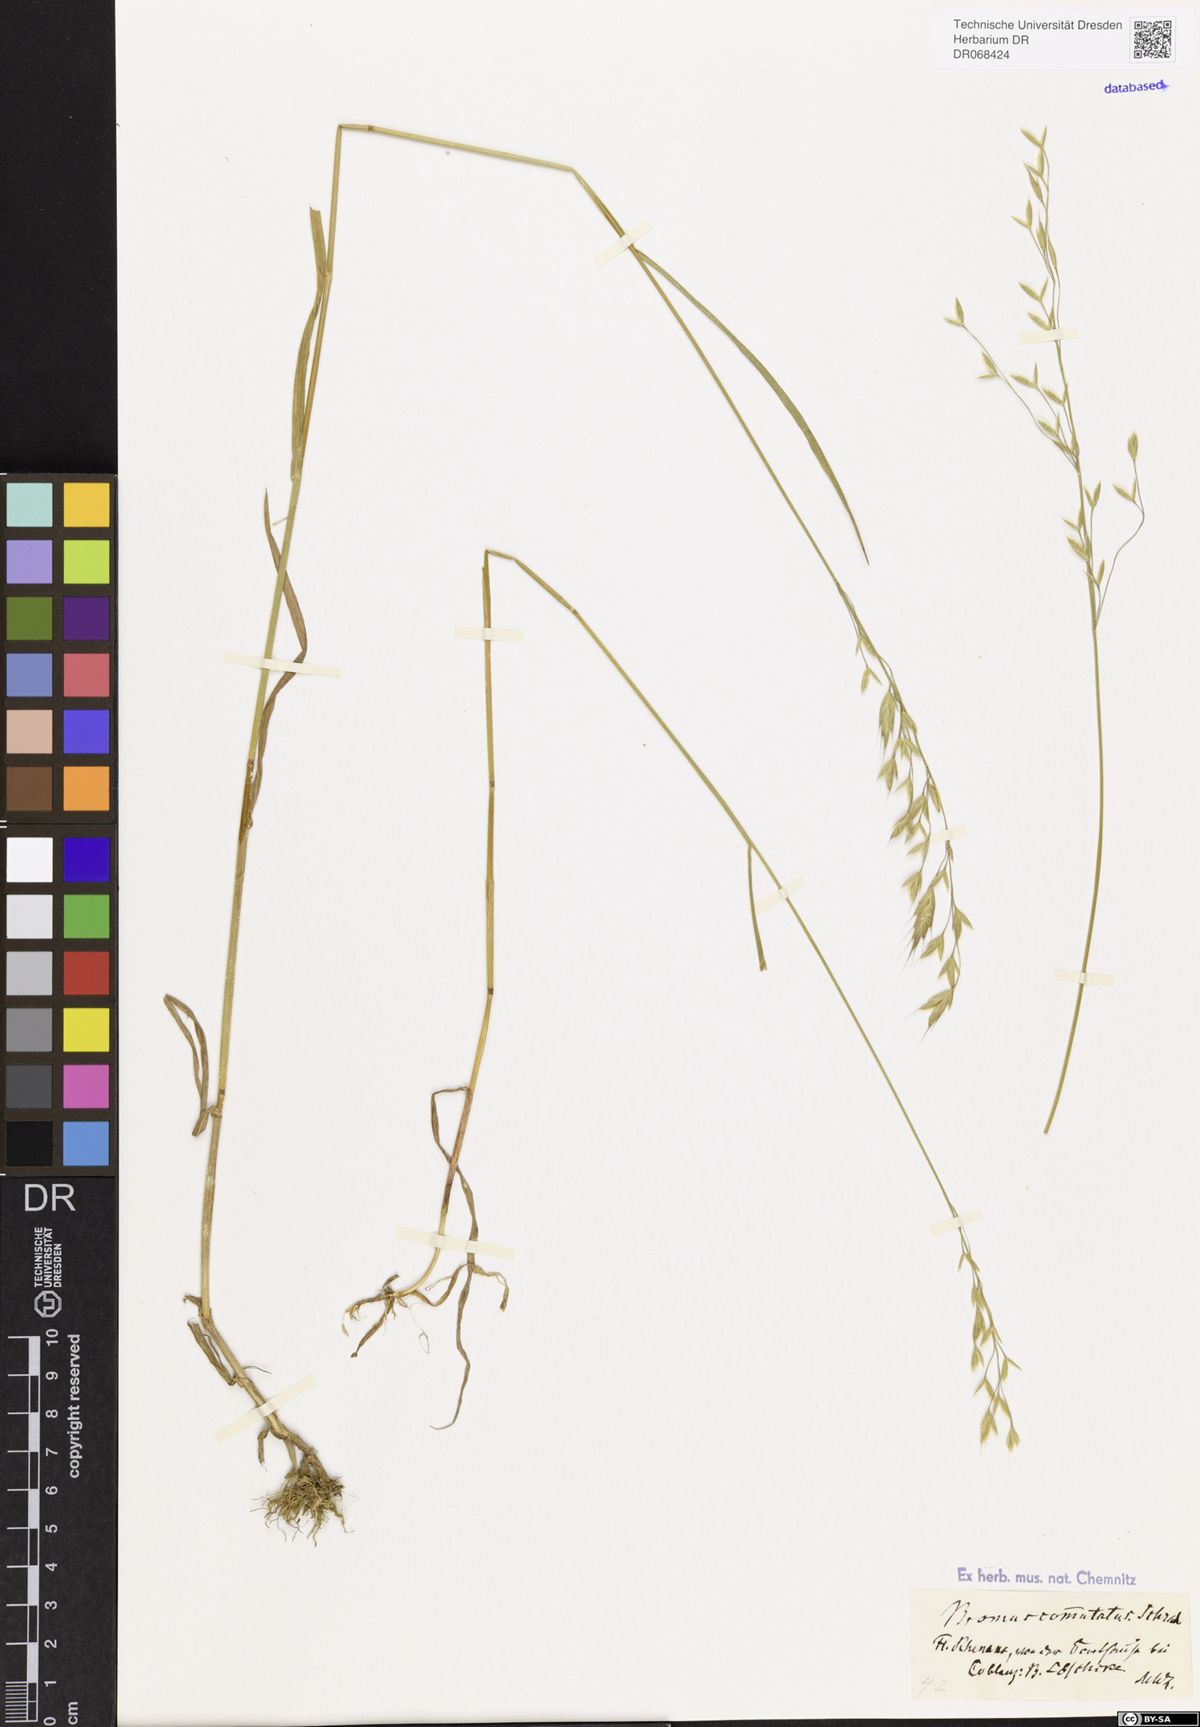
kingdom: Plantae
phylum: Tracheophyta
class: Liliopsida
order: Poales
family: Poaceae
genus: Bromus
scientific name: Bromus commutatus
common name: Meadow brome
